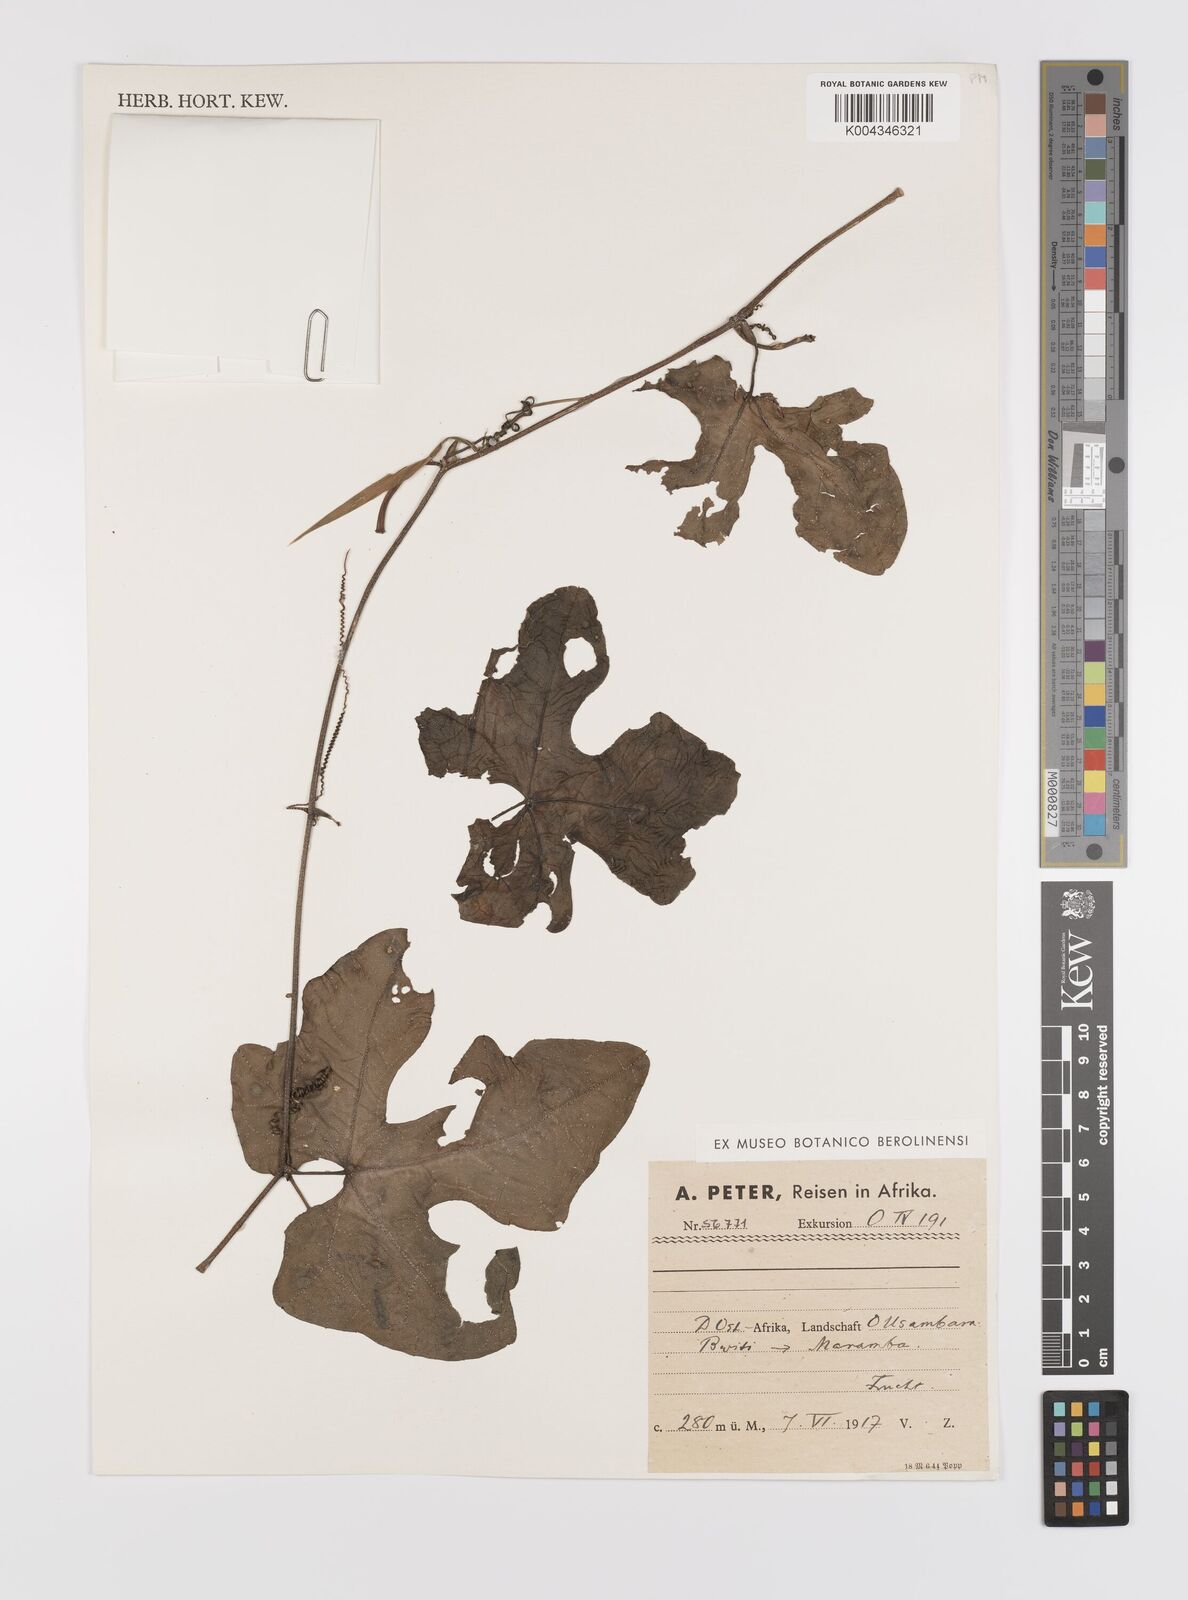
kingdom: Plantae
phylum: Tracheophyta
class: Magnoliopsida
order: Cucurbitales
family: Cucurbitaceae
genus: Coccinia
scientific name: Coccinia grandis
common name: Ivy gourd
